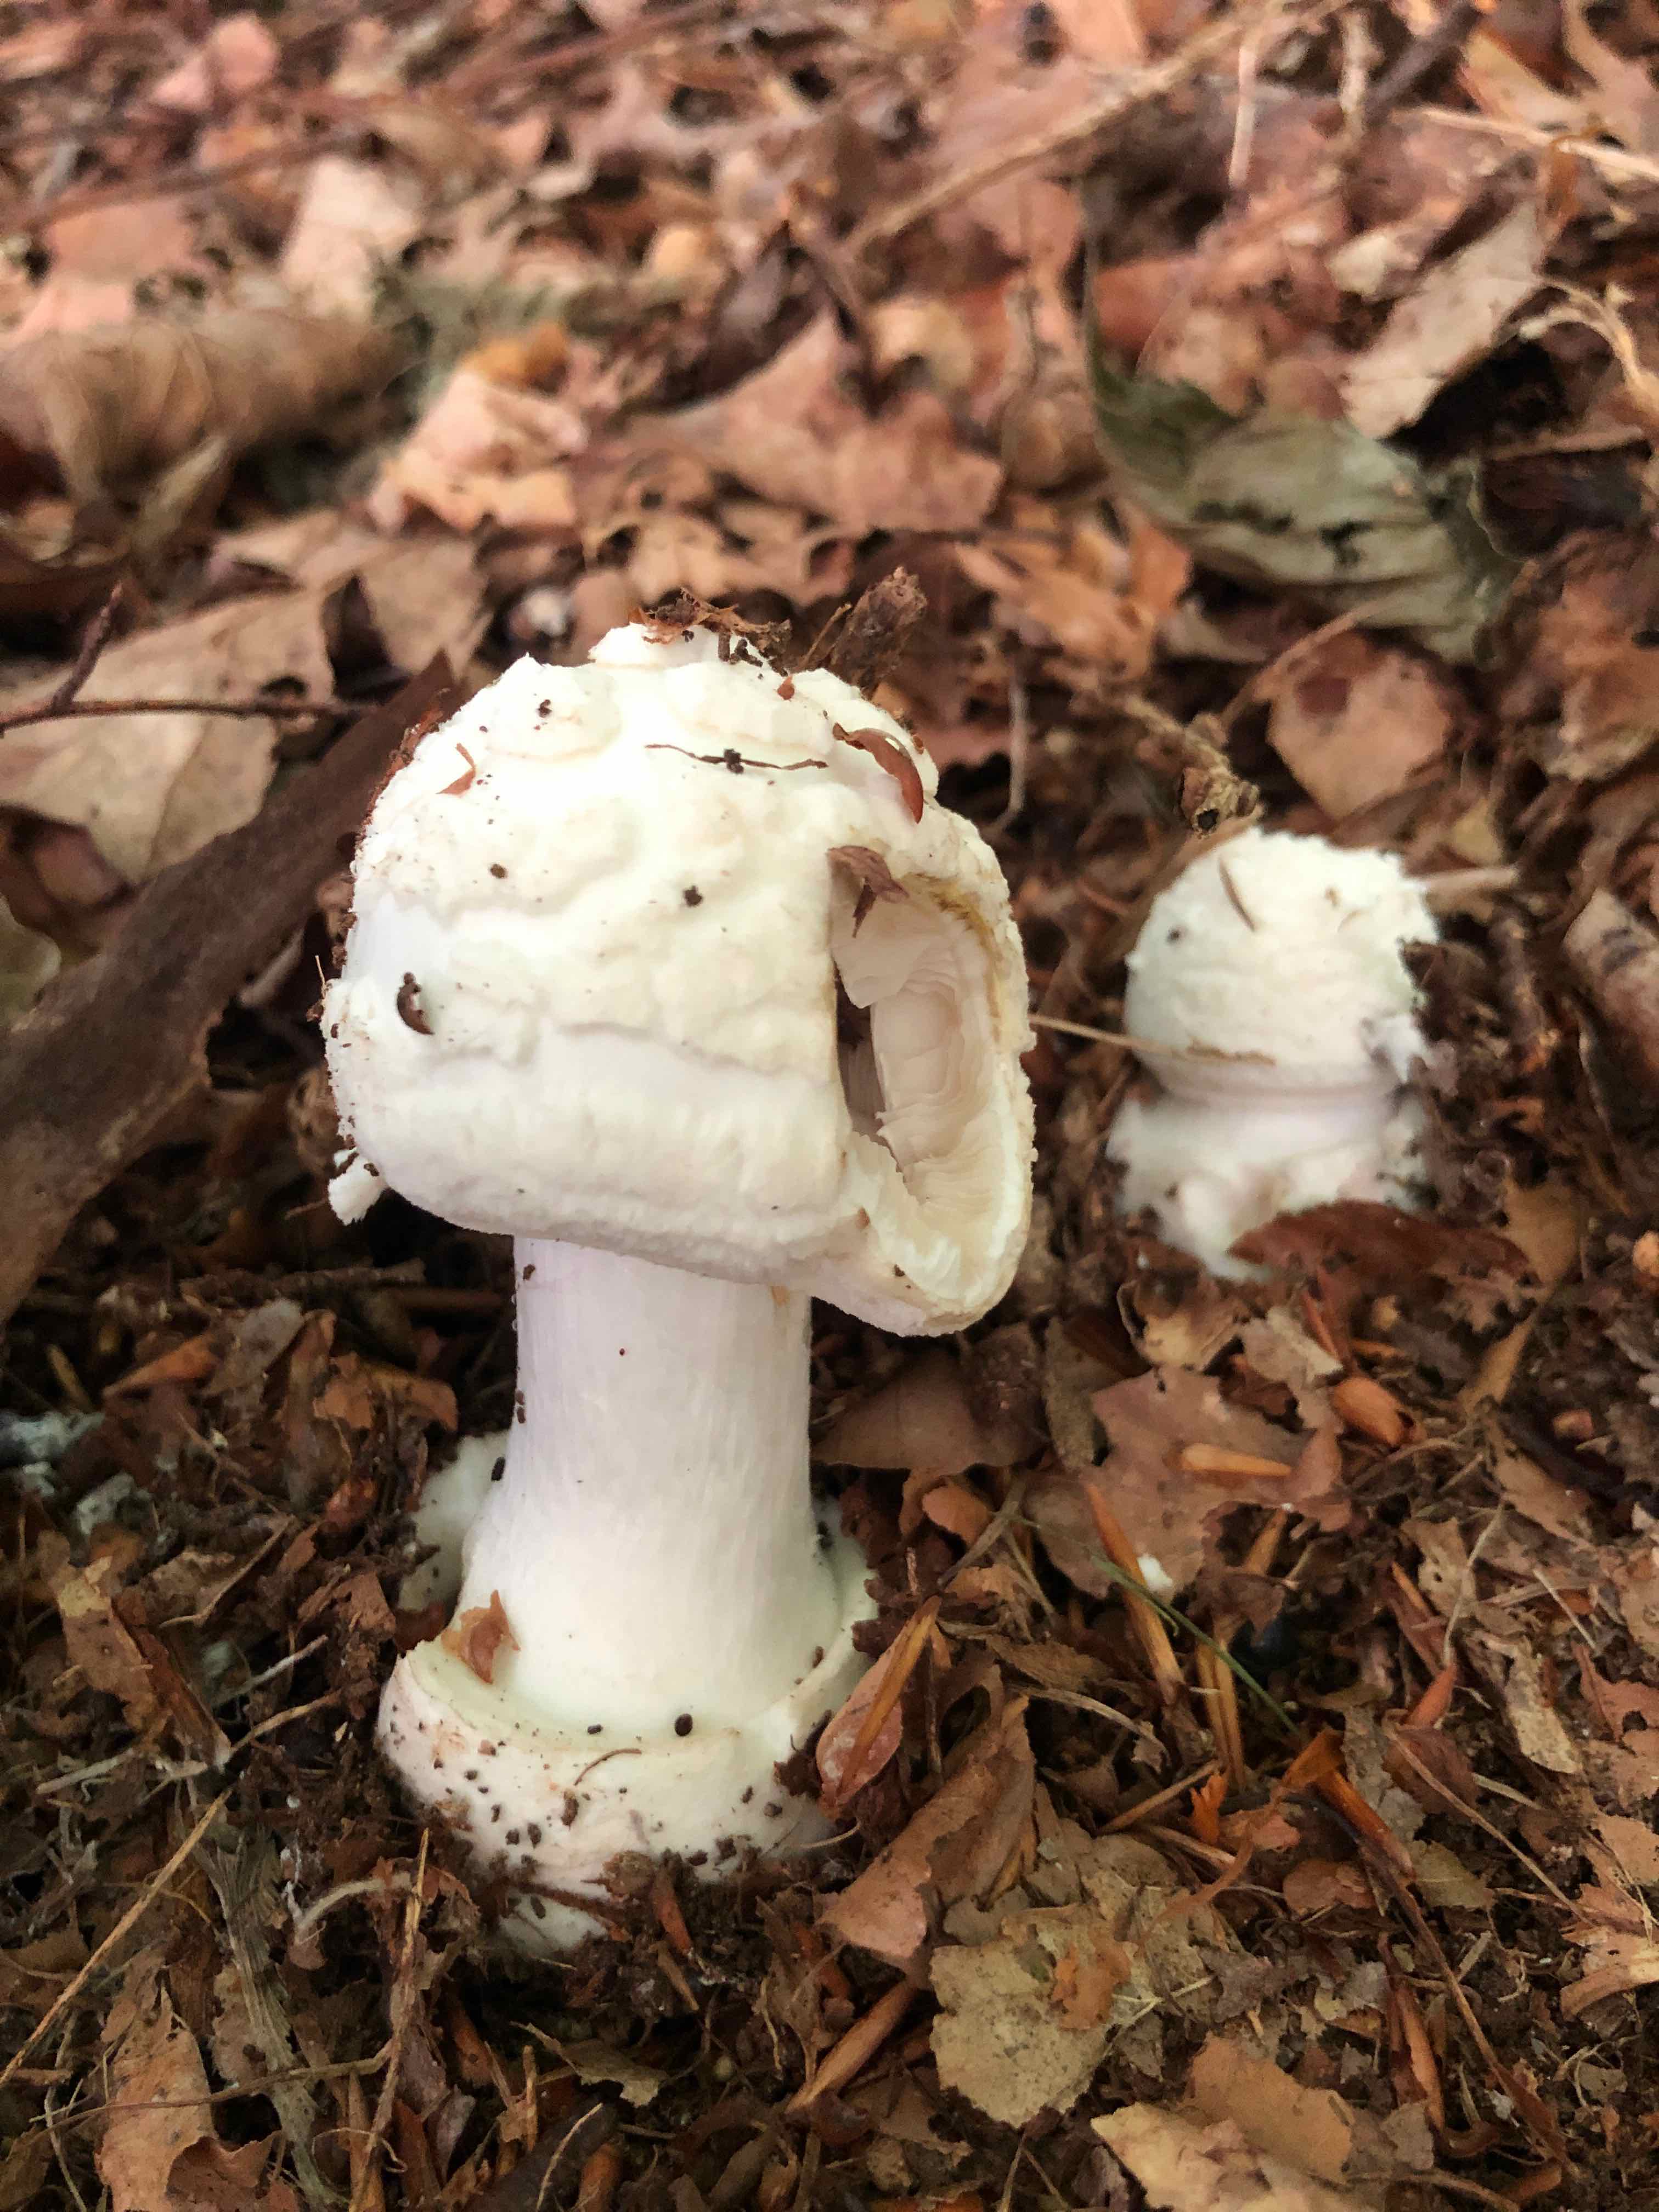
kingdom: Fungi
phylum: Basidiomycota
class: Agaricomycetes
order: Agaricales
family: Amanitaceae
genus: Amanita
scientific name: Amanita citrina
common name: False death-cap
